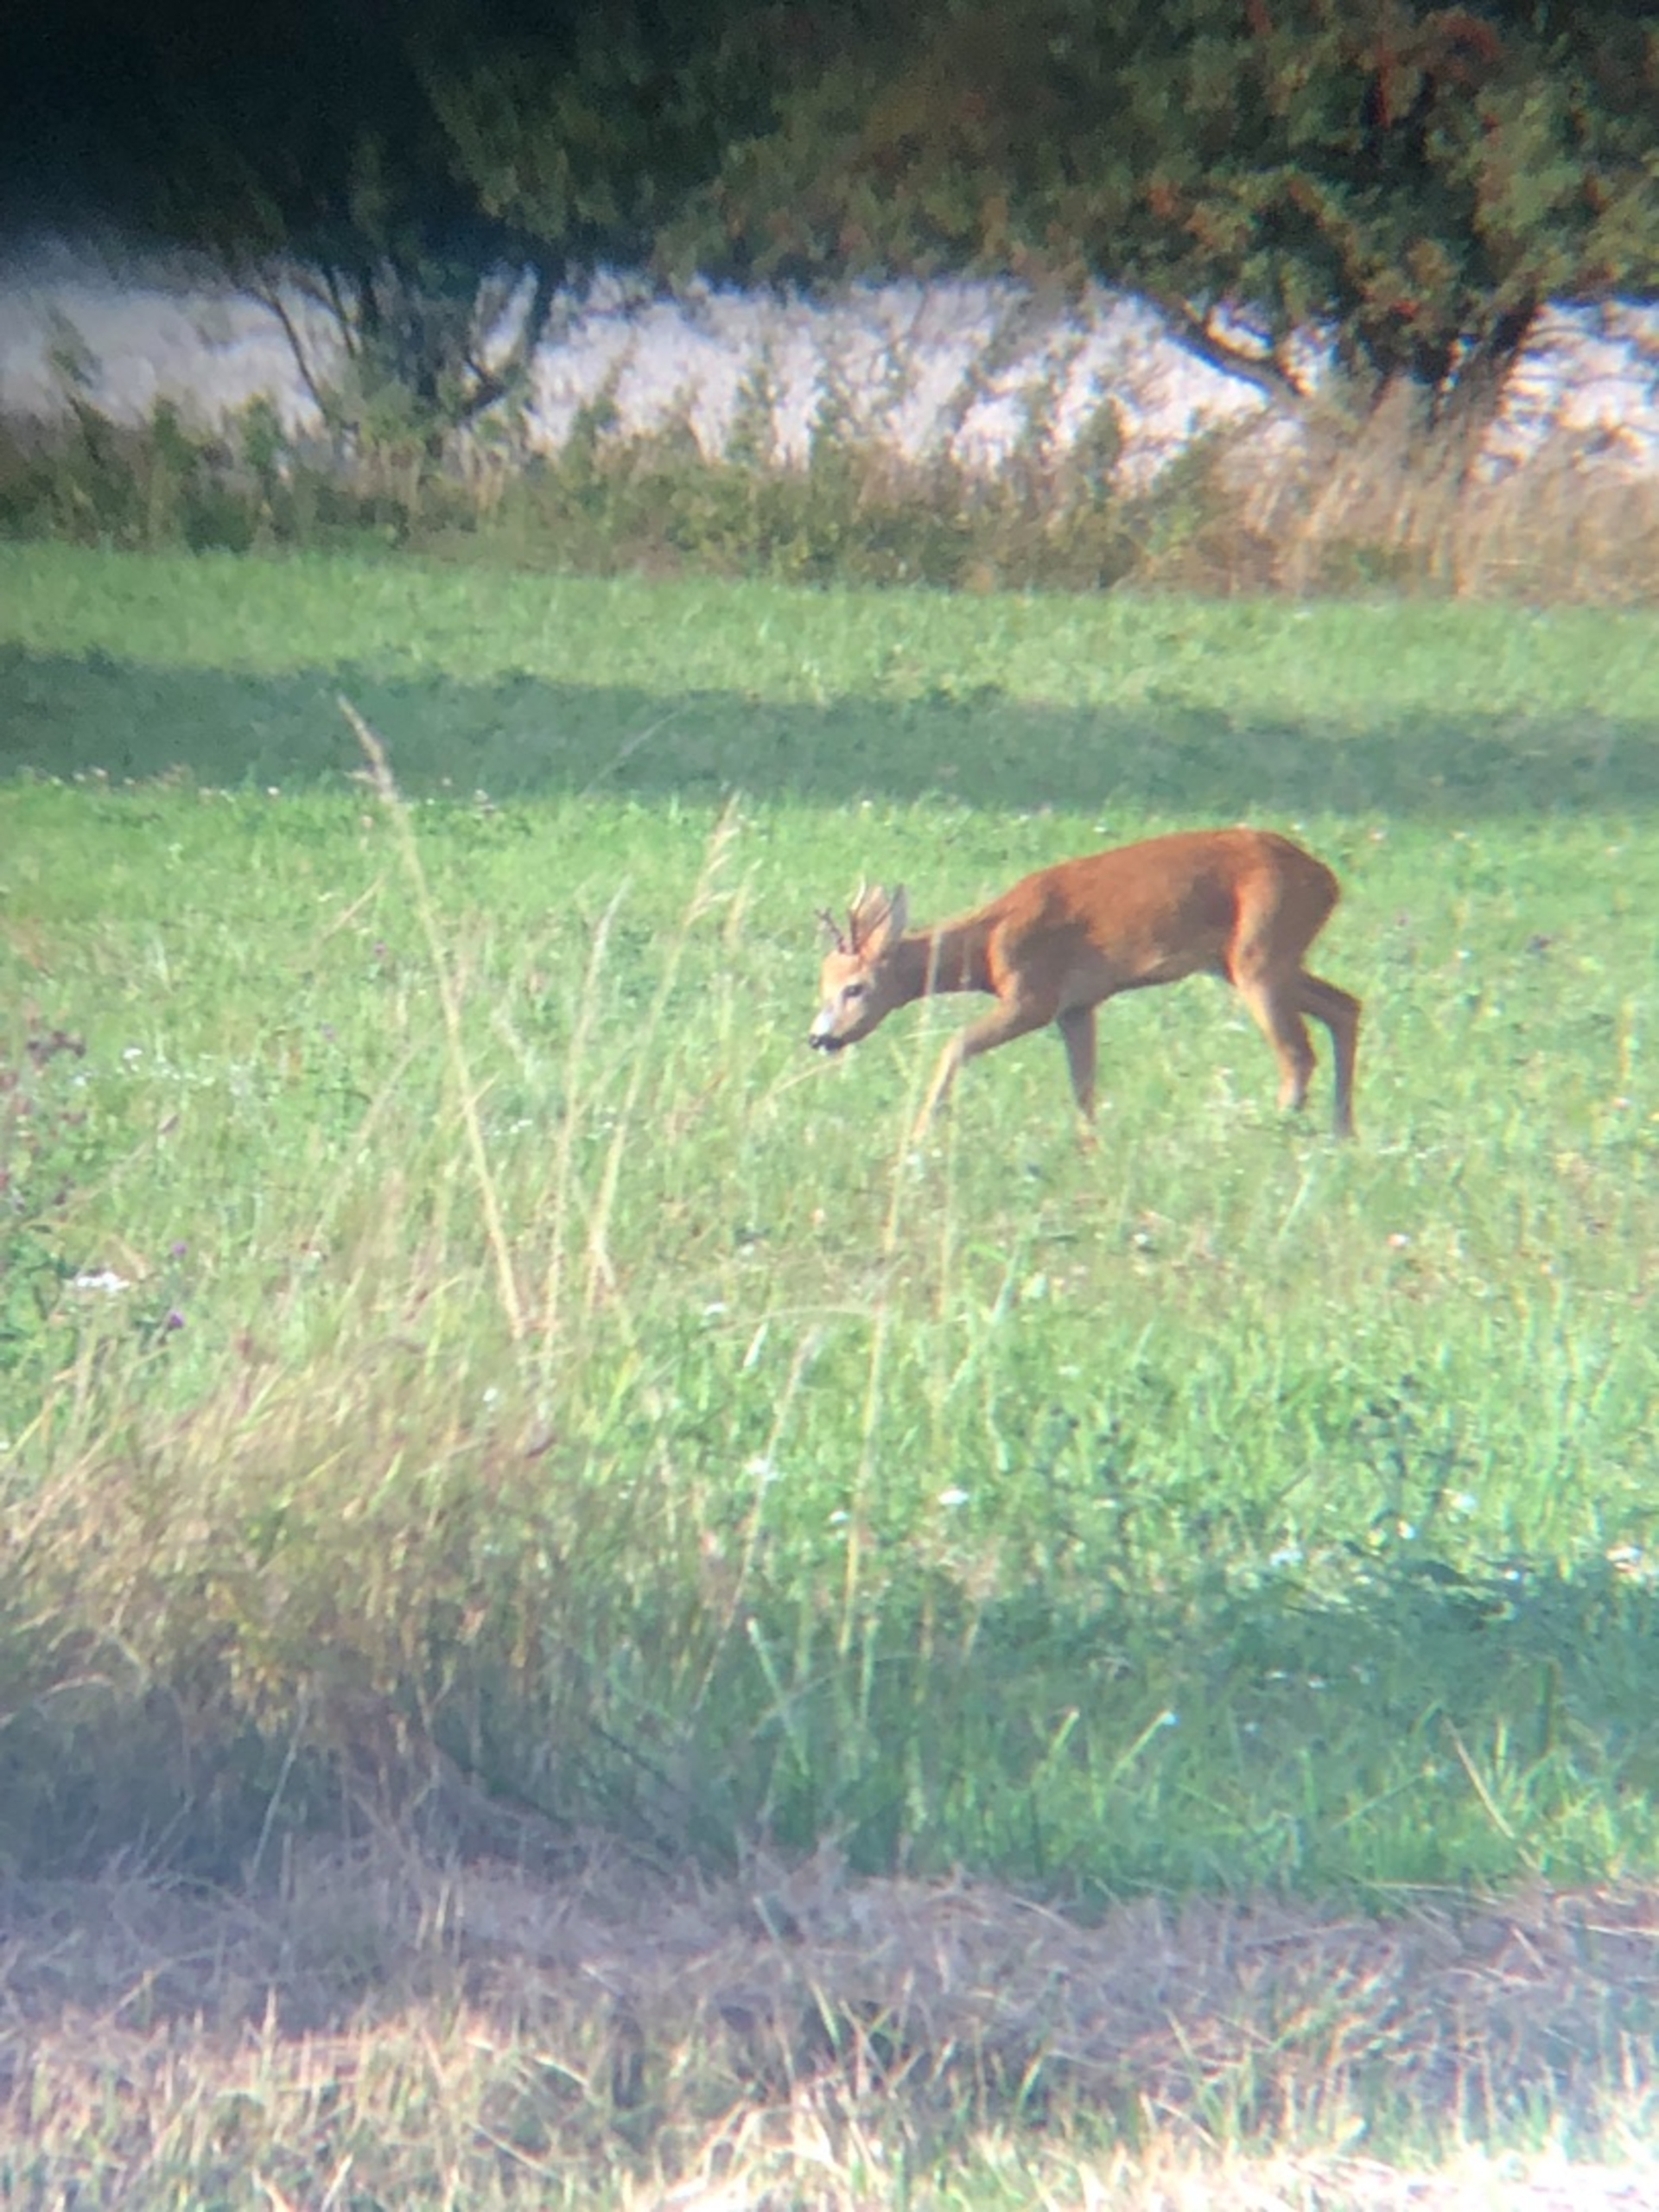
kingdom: Animalia
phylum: Chordata
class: Mammalia
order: Artiodactyla
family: Cervidae
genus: Capreolus
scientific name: Capreolus capreolus
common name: Rådyr
